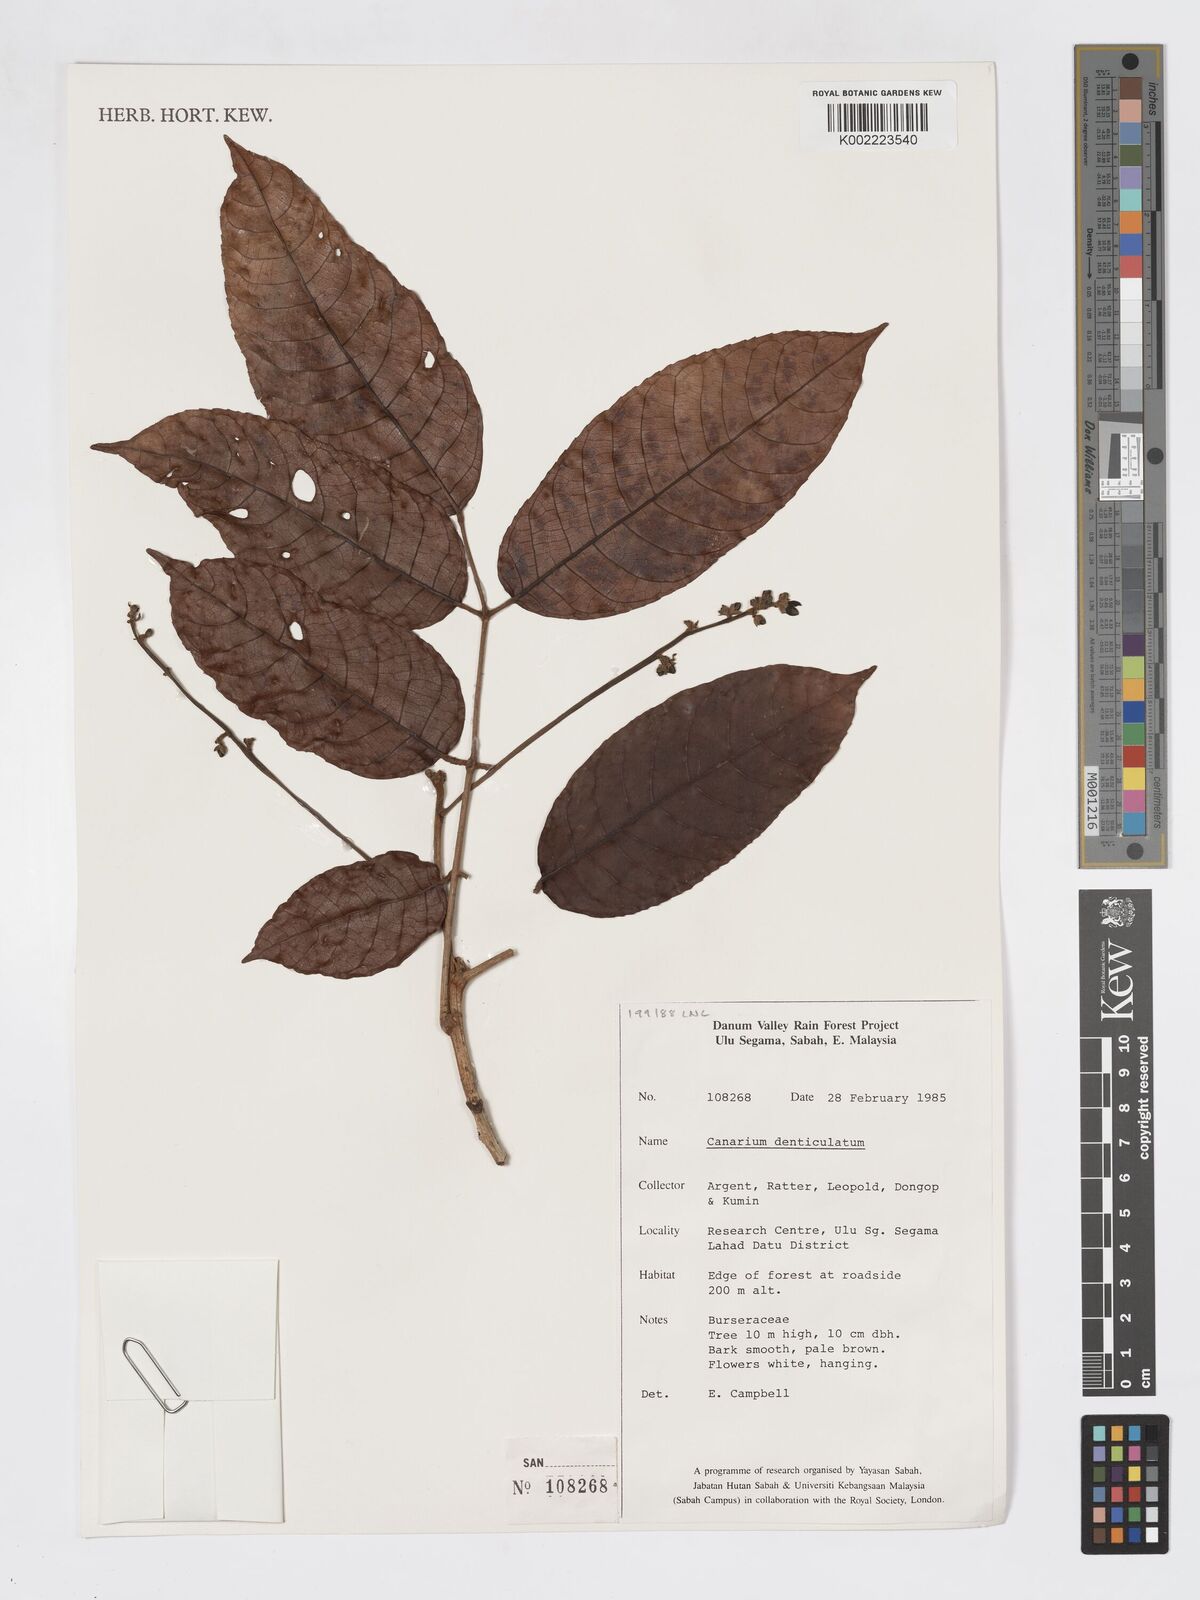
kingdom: Plantae
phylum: Tracheophyta
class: Magnoliopsida
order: Sapindales
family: Burseraceae
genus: Canarium
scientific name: Canarium denticulatum
